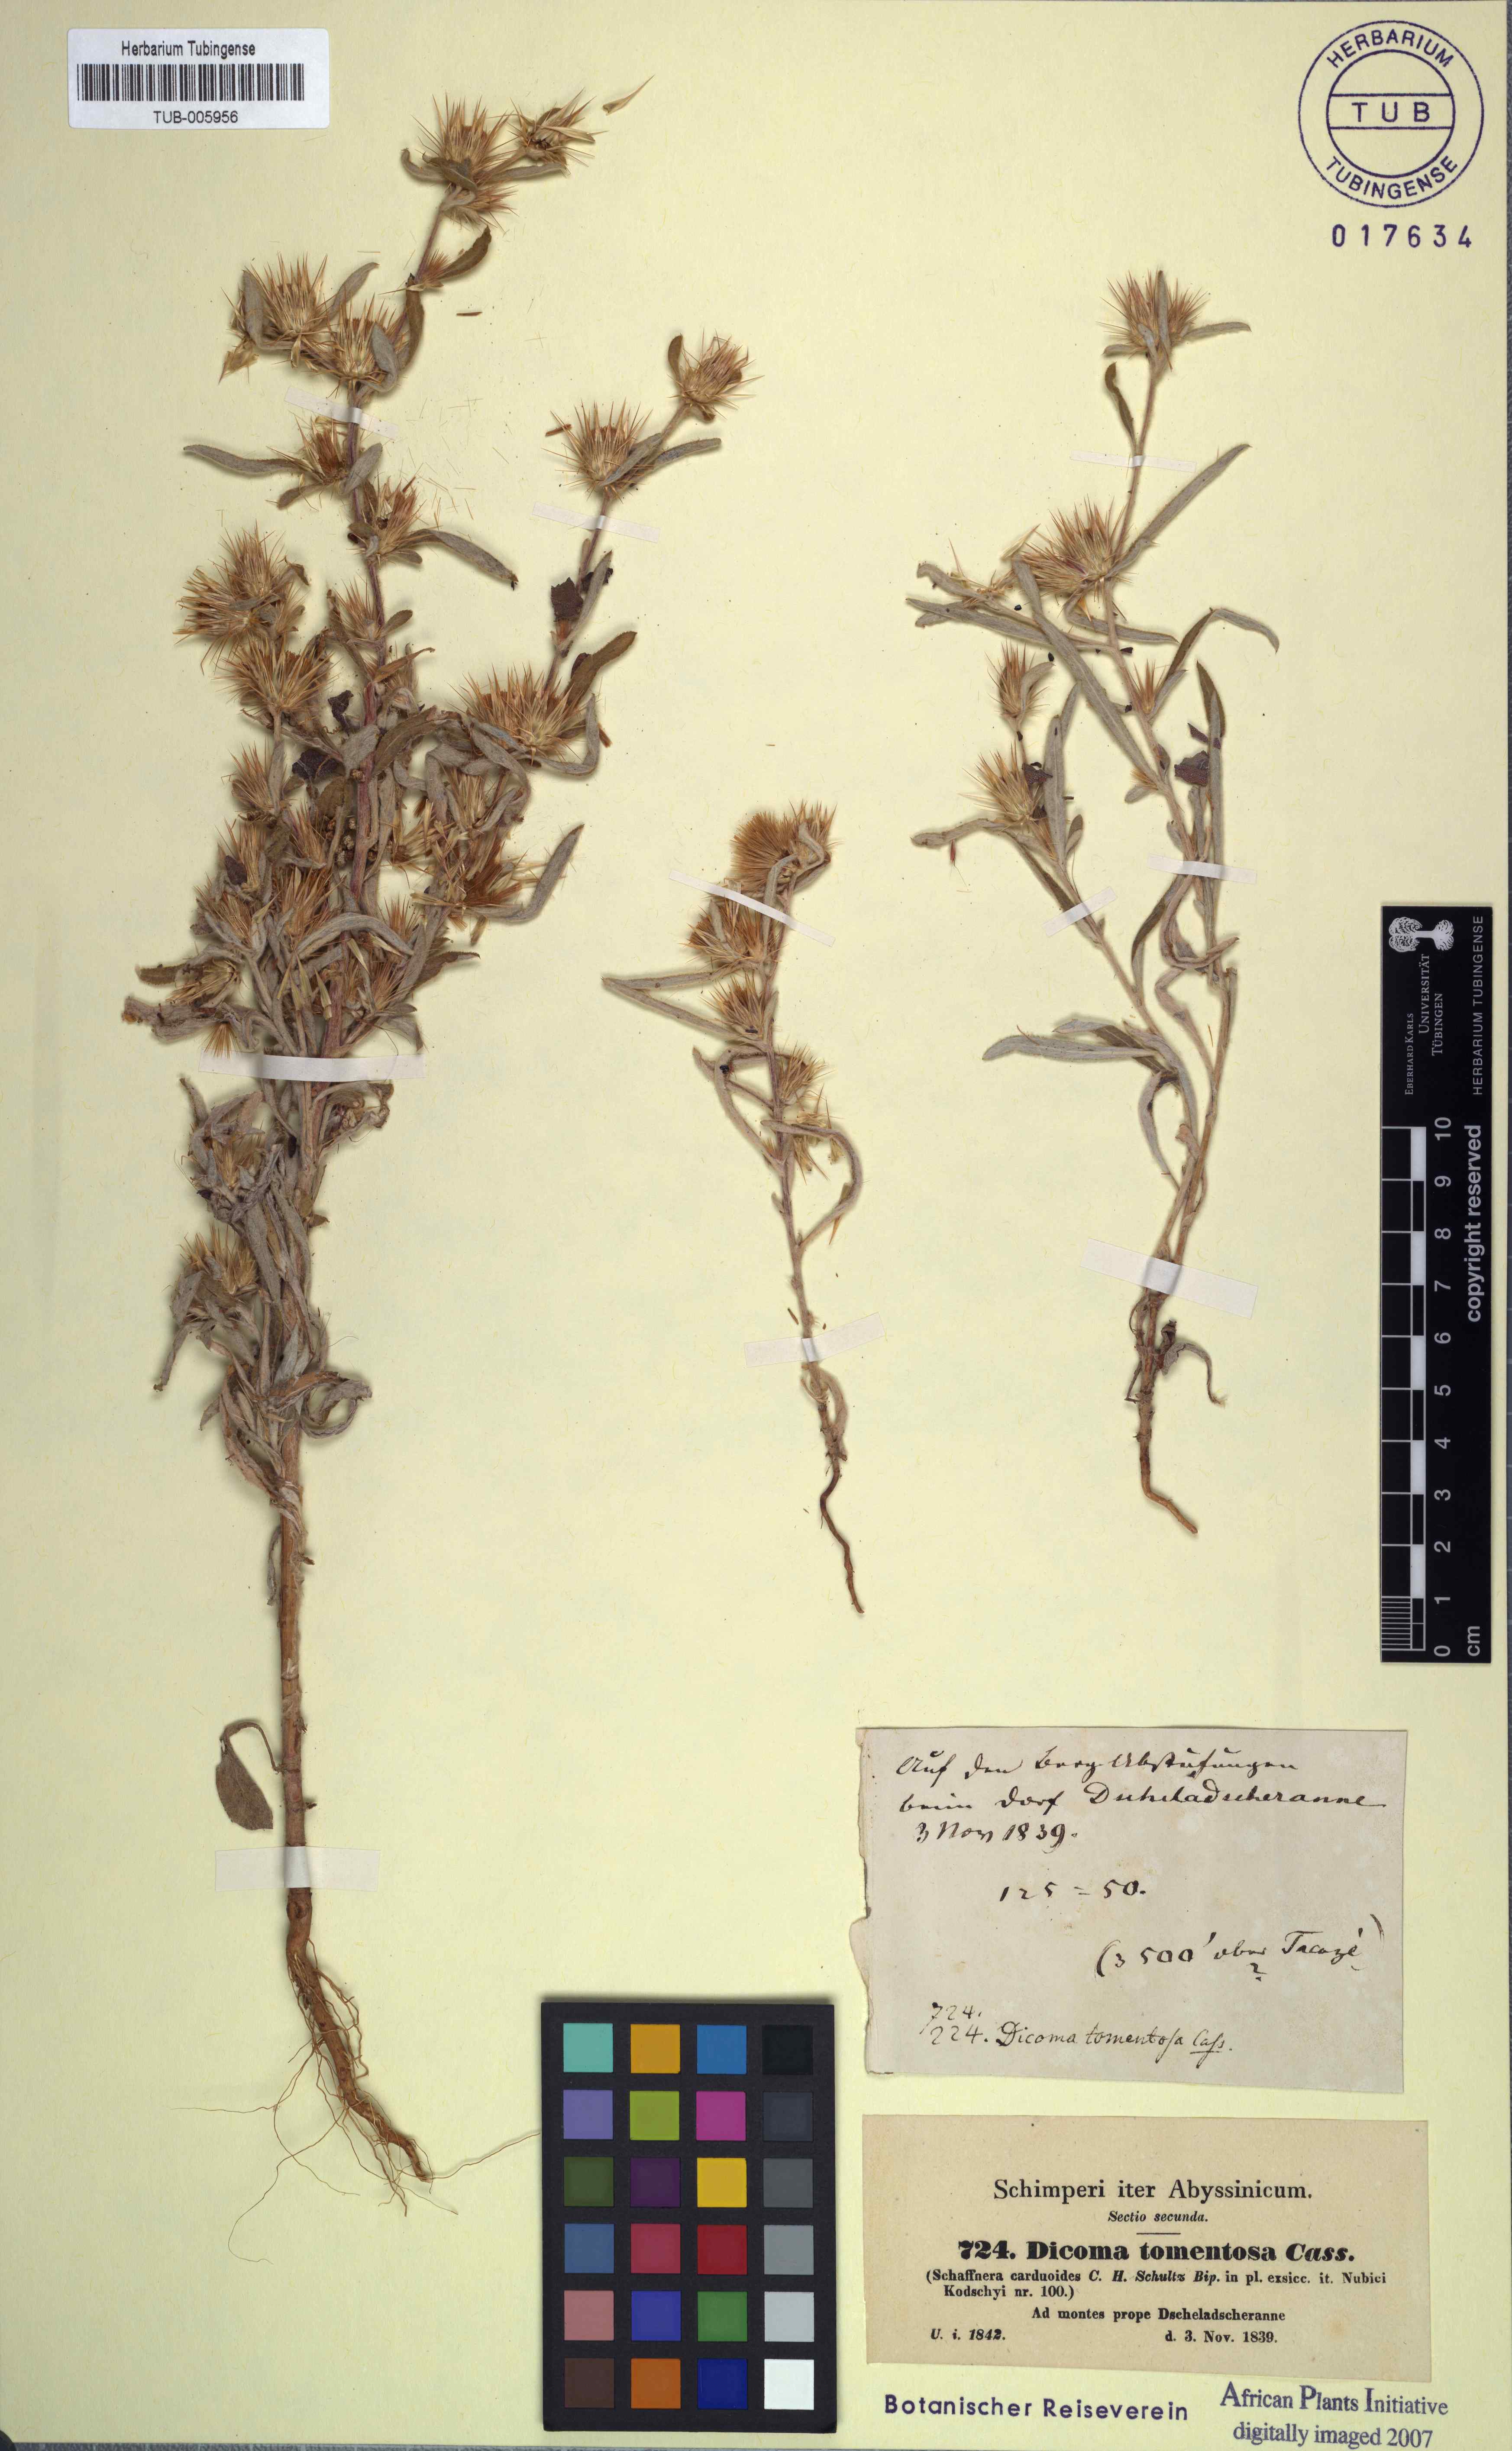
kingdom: Plantae
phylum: Tracheophyta
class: Magnoliopsida
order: Asterales
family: Asteraceae
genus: Dicoma
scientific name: Dicoma tomentosa
